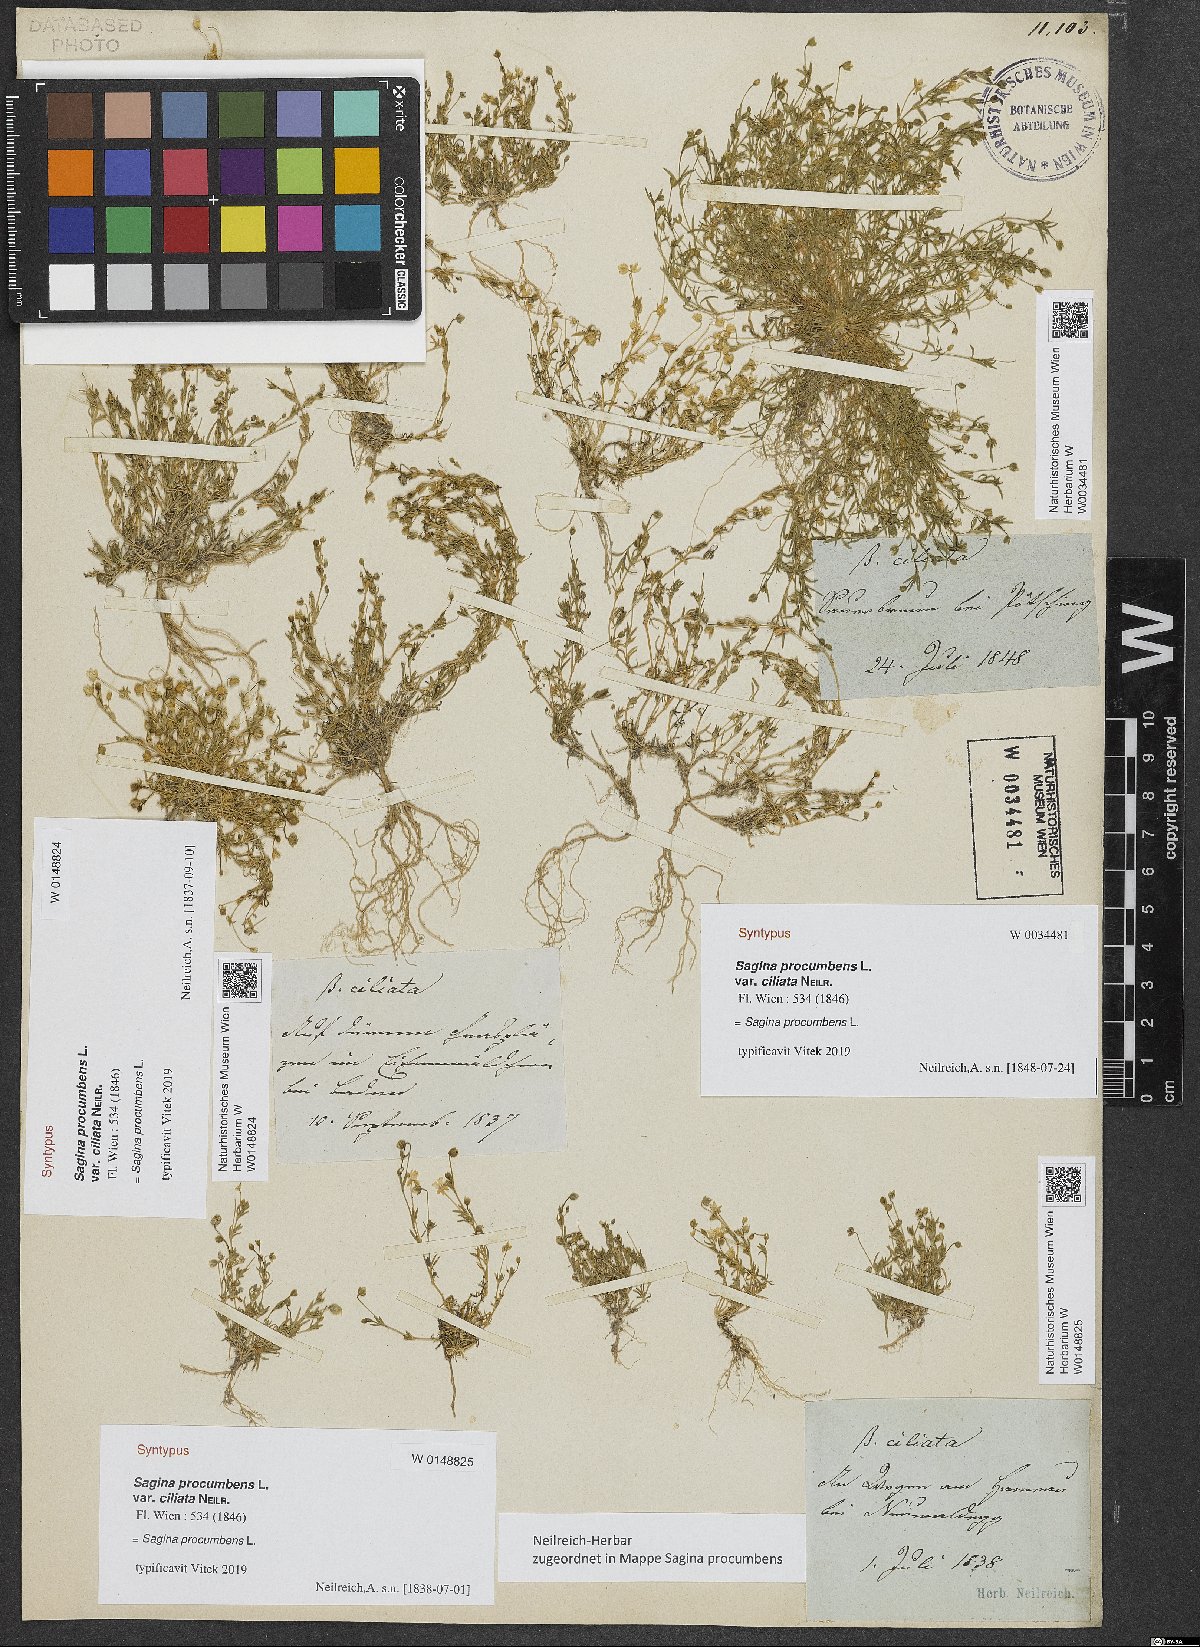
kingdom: Plantae
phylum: Tracheophyta
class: Magnoliopsida
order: Caryophyllales
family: Caryophyllaceae
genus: Sagina
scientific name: Sagina procumbens
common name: Procumbent pearlwort
